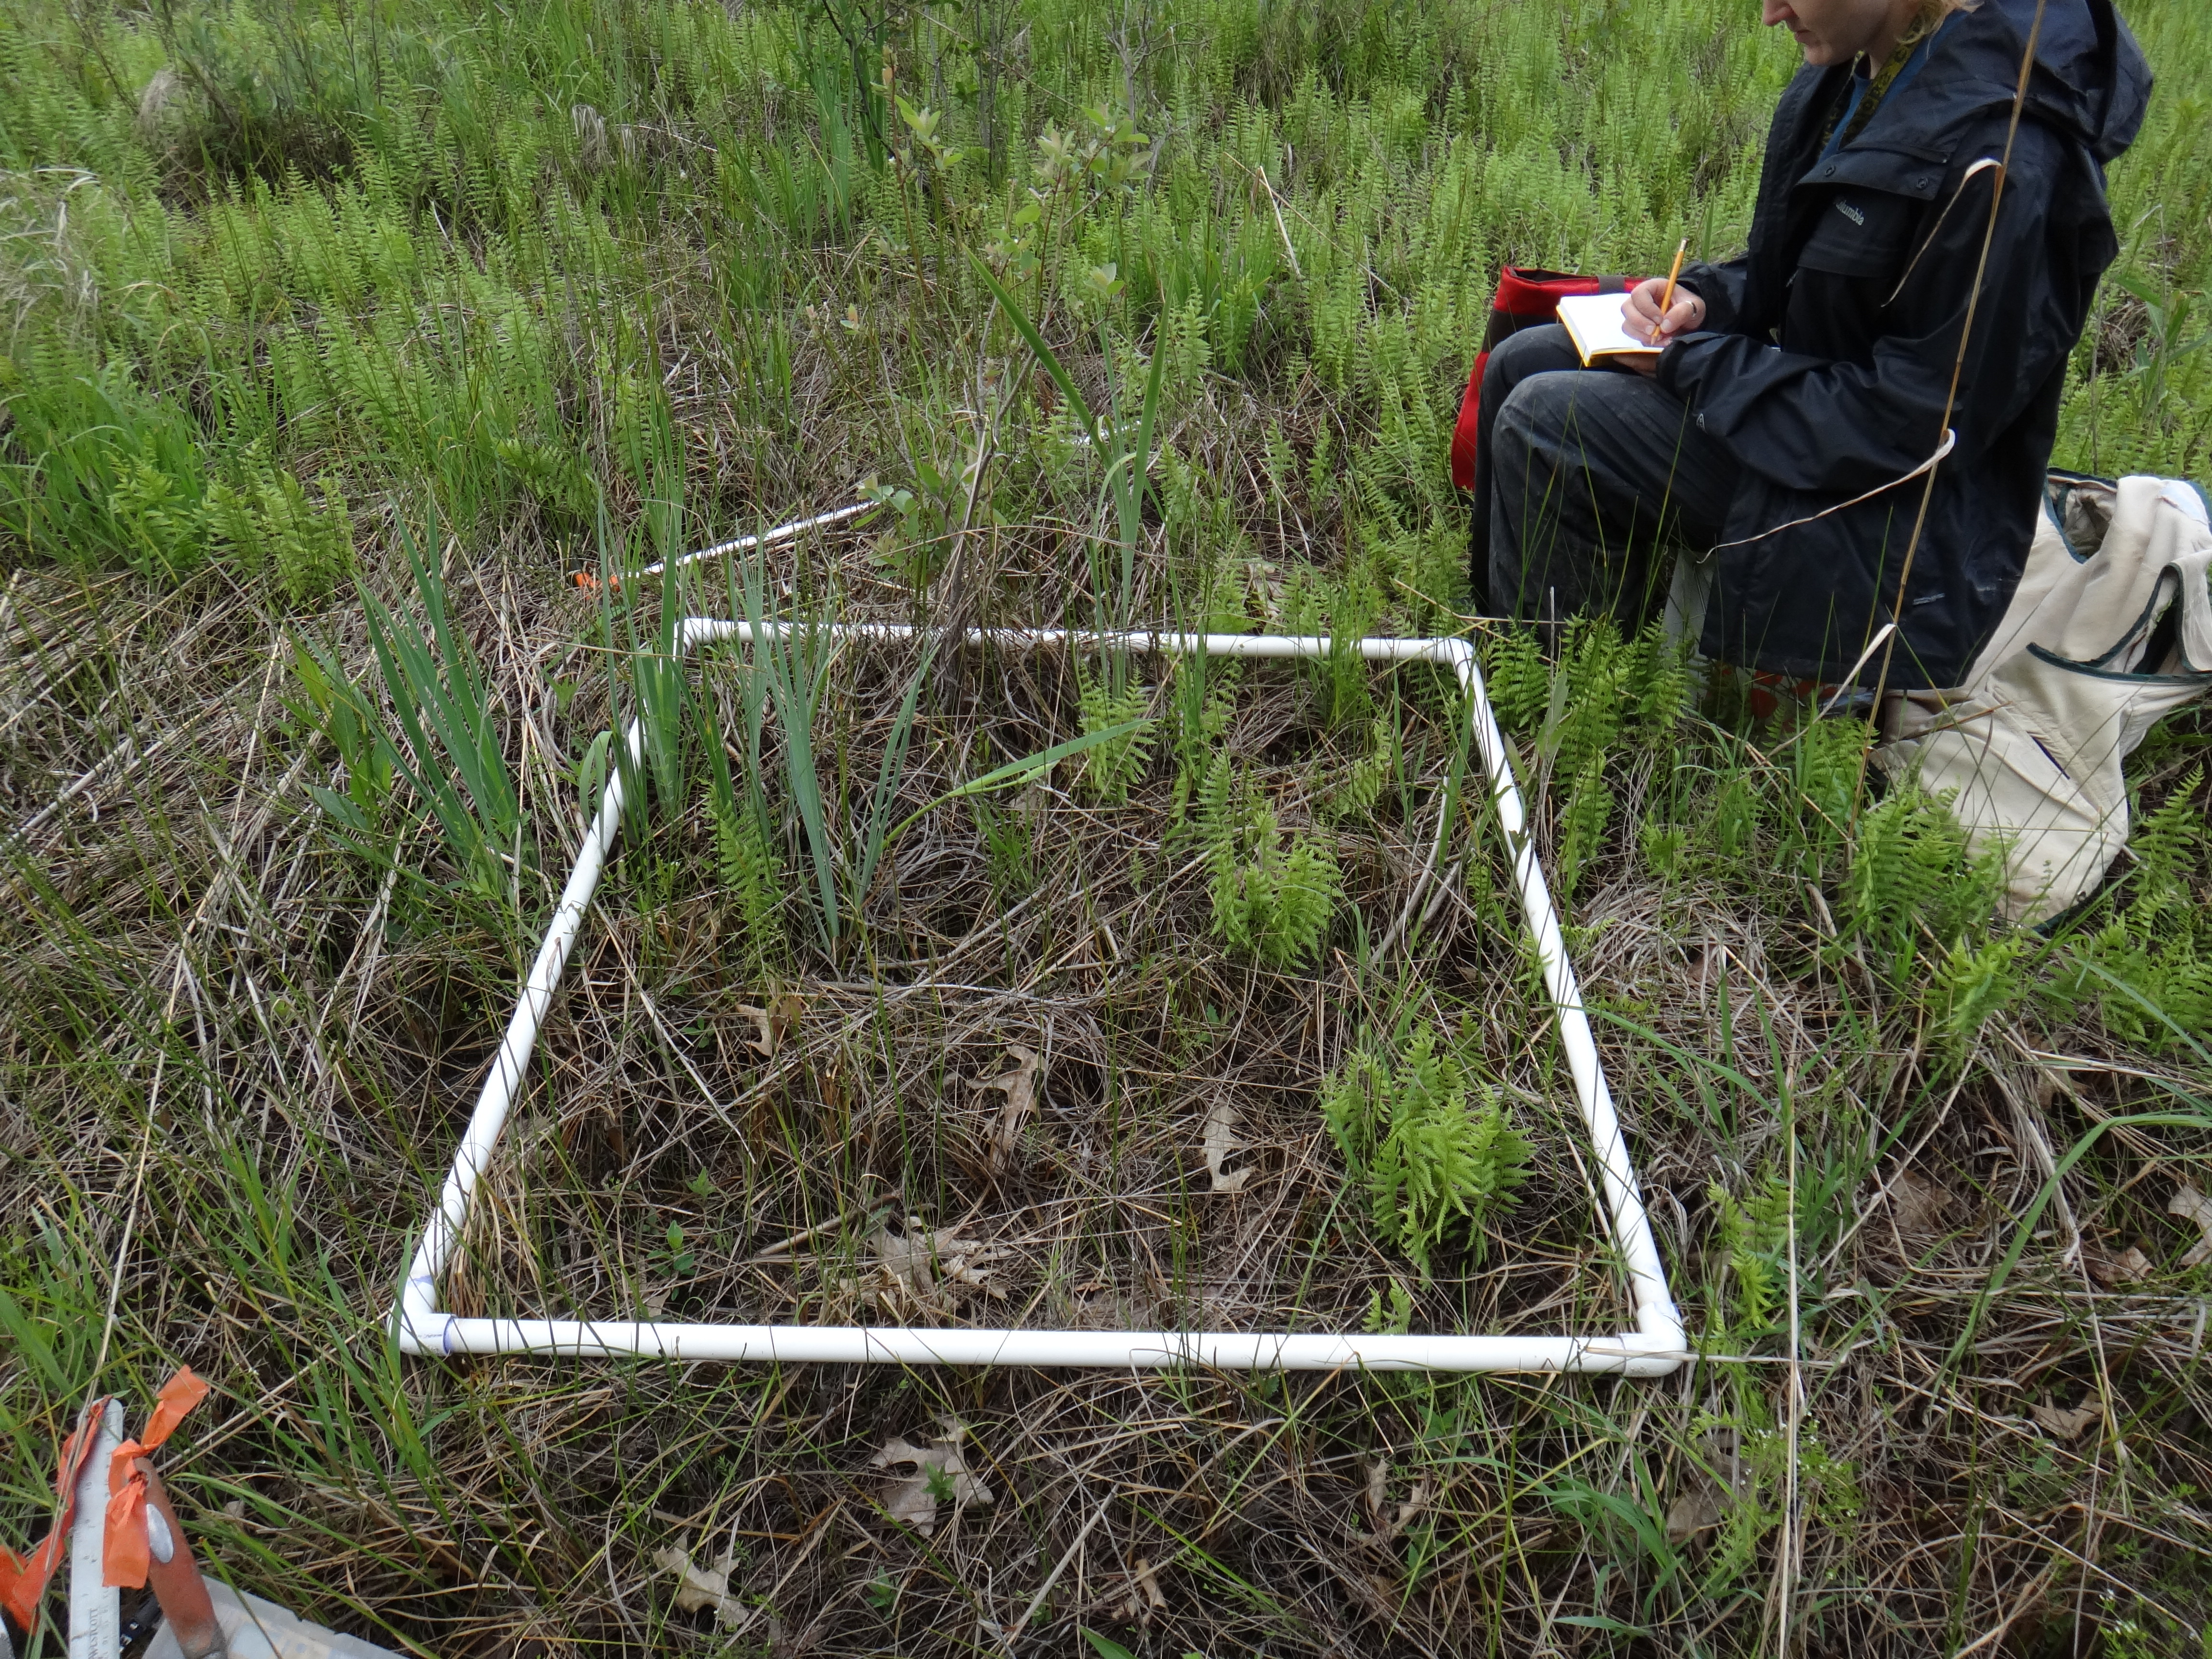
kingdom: Plantae
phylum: Tracheophyta
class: Polypodiopsida
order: Polypodiales
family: Thelypteridaceae
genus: Thelypteris
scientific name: Thelypteris palustris
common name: Marsh fern
